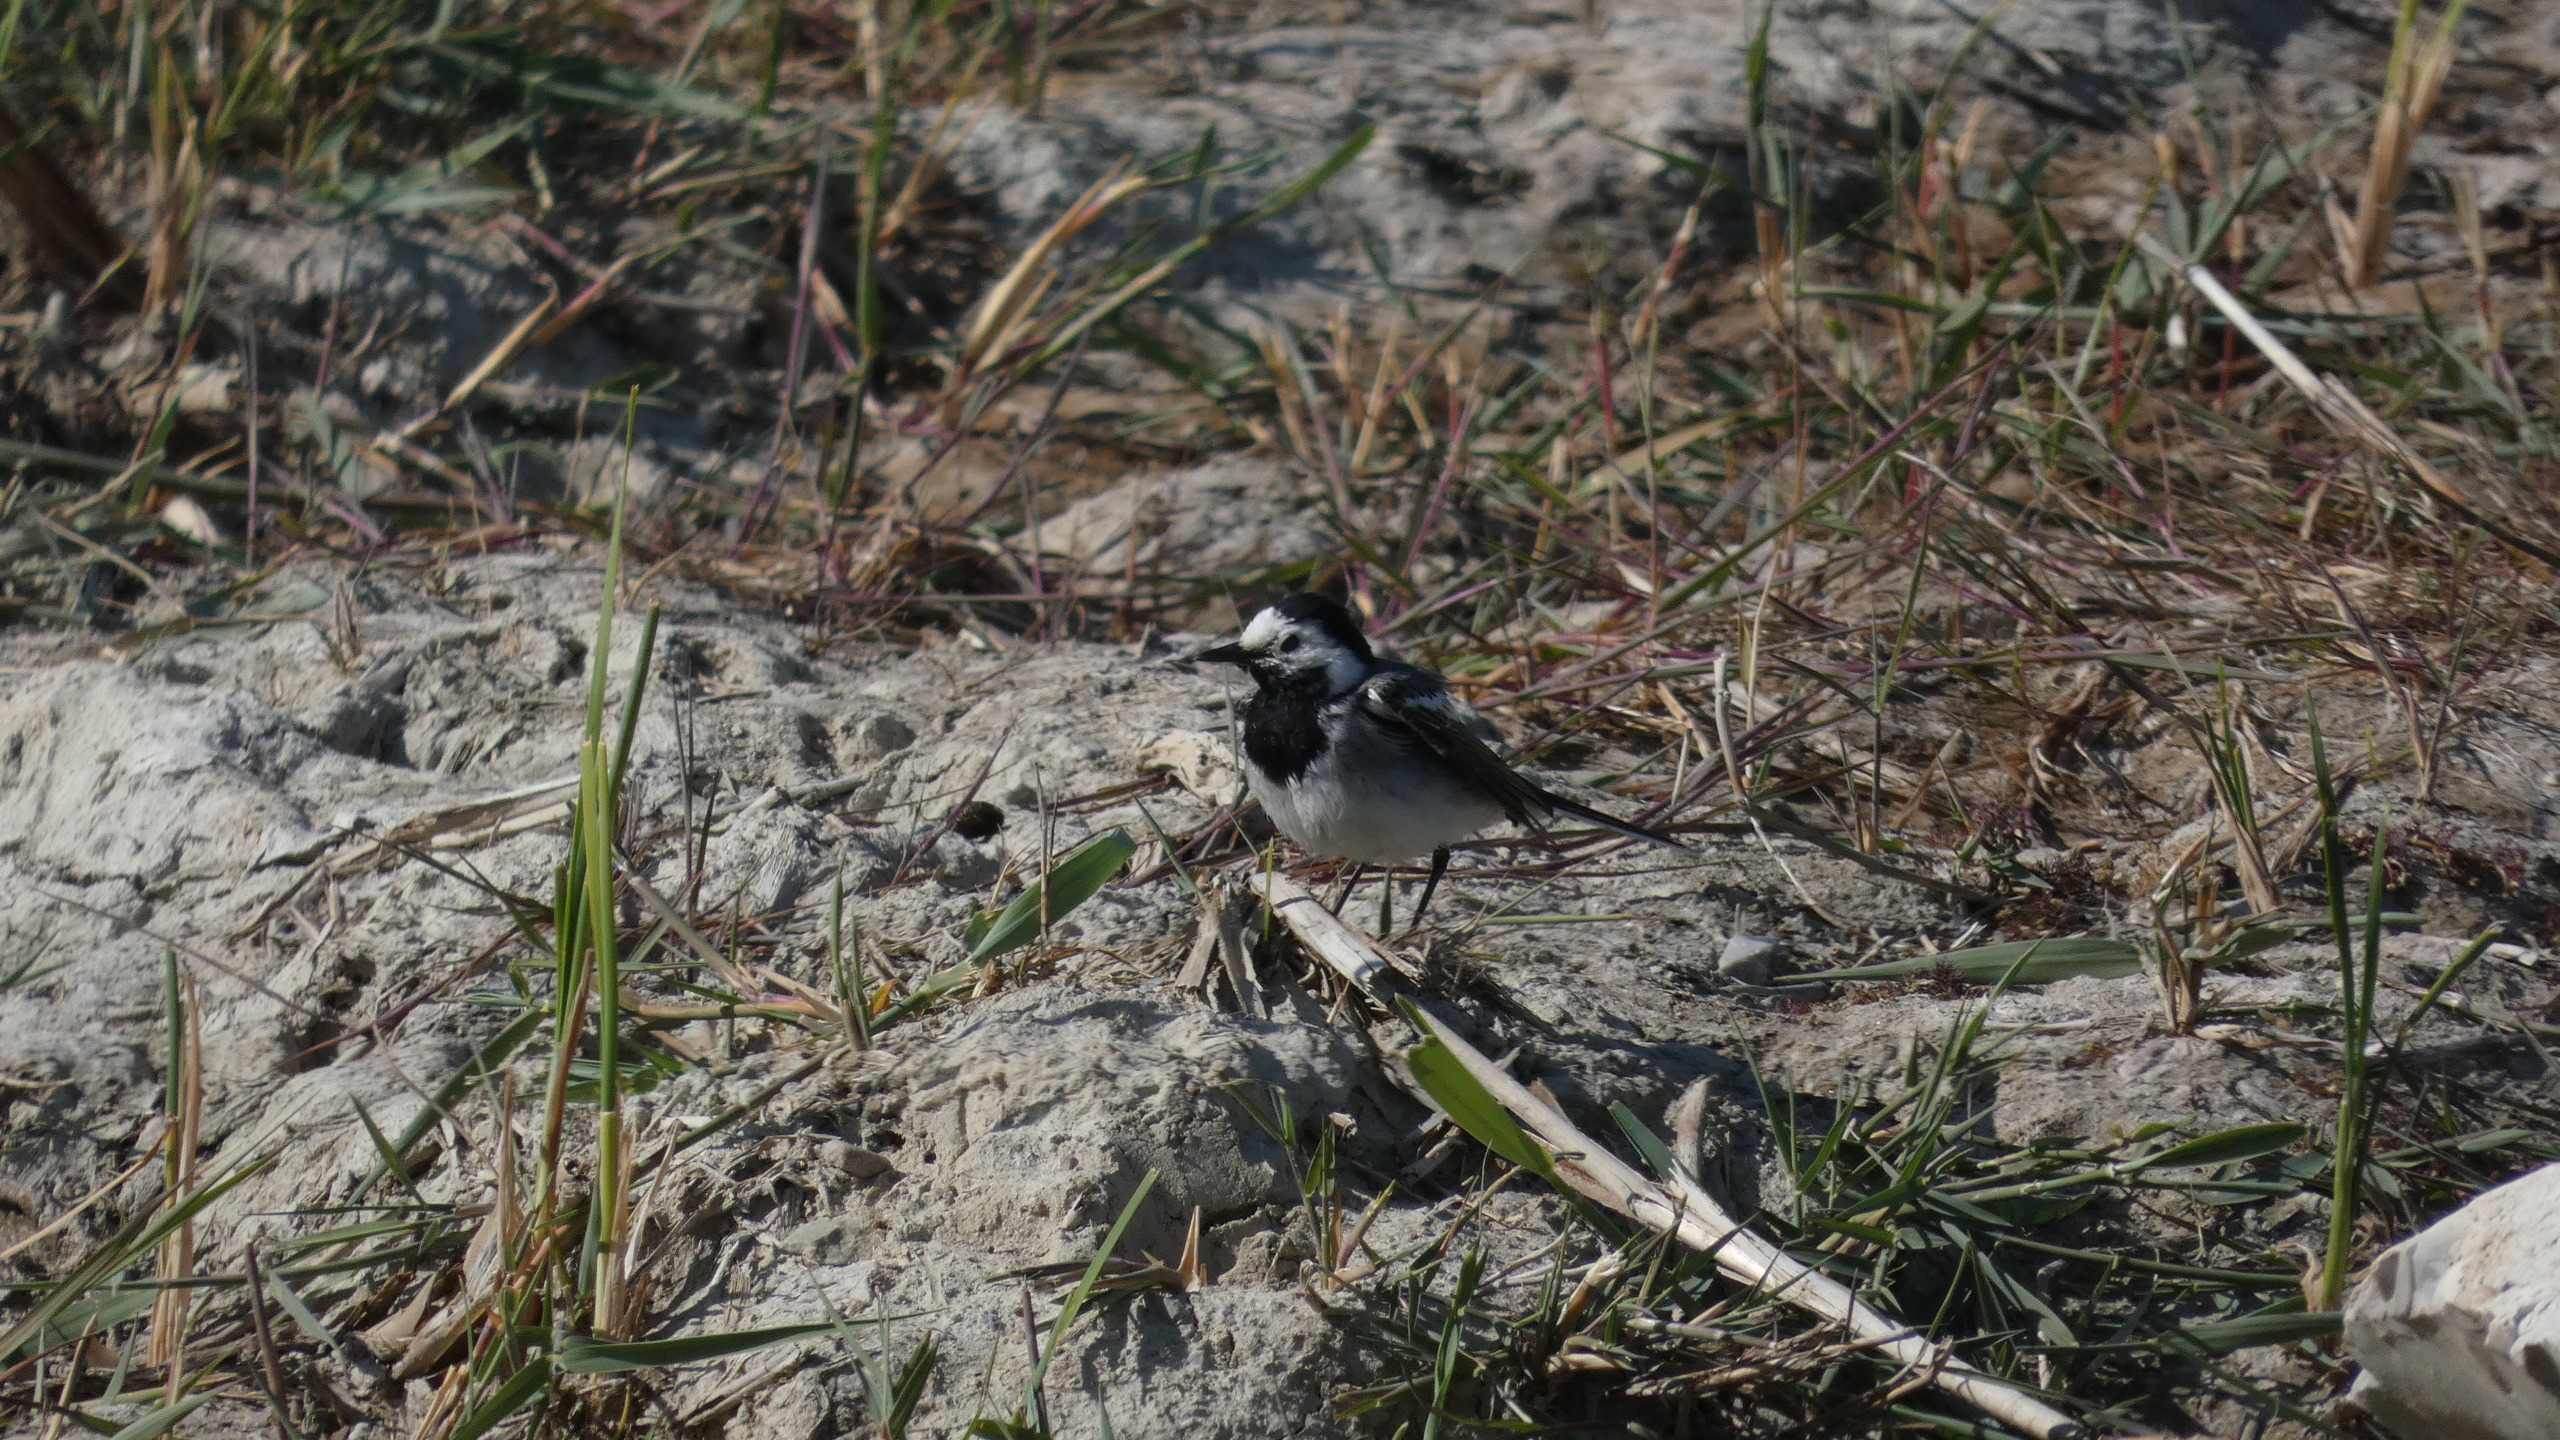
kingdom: Animalia
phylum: Chordata
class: Aves
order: Passeriformes
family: Motacillidae
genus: Motacilla
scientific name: Motacilla alba
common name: Hvid vipstjert
